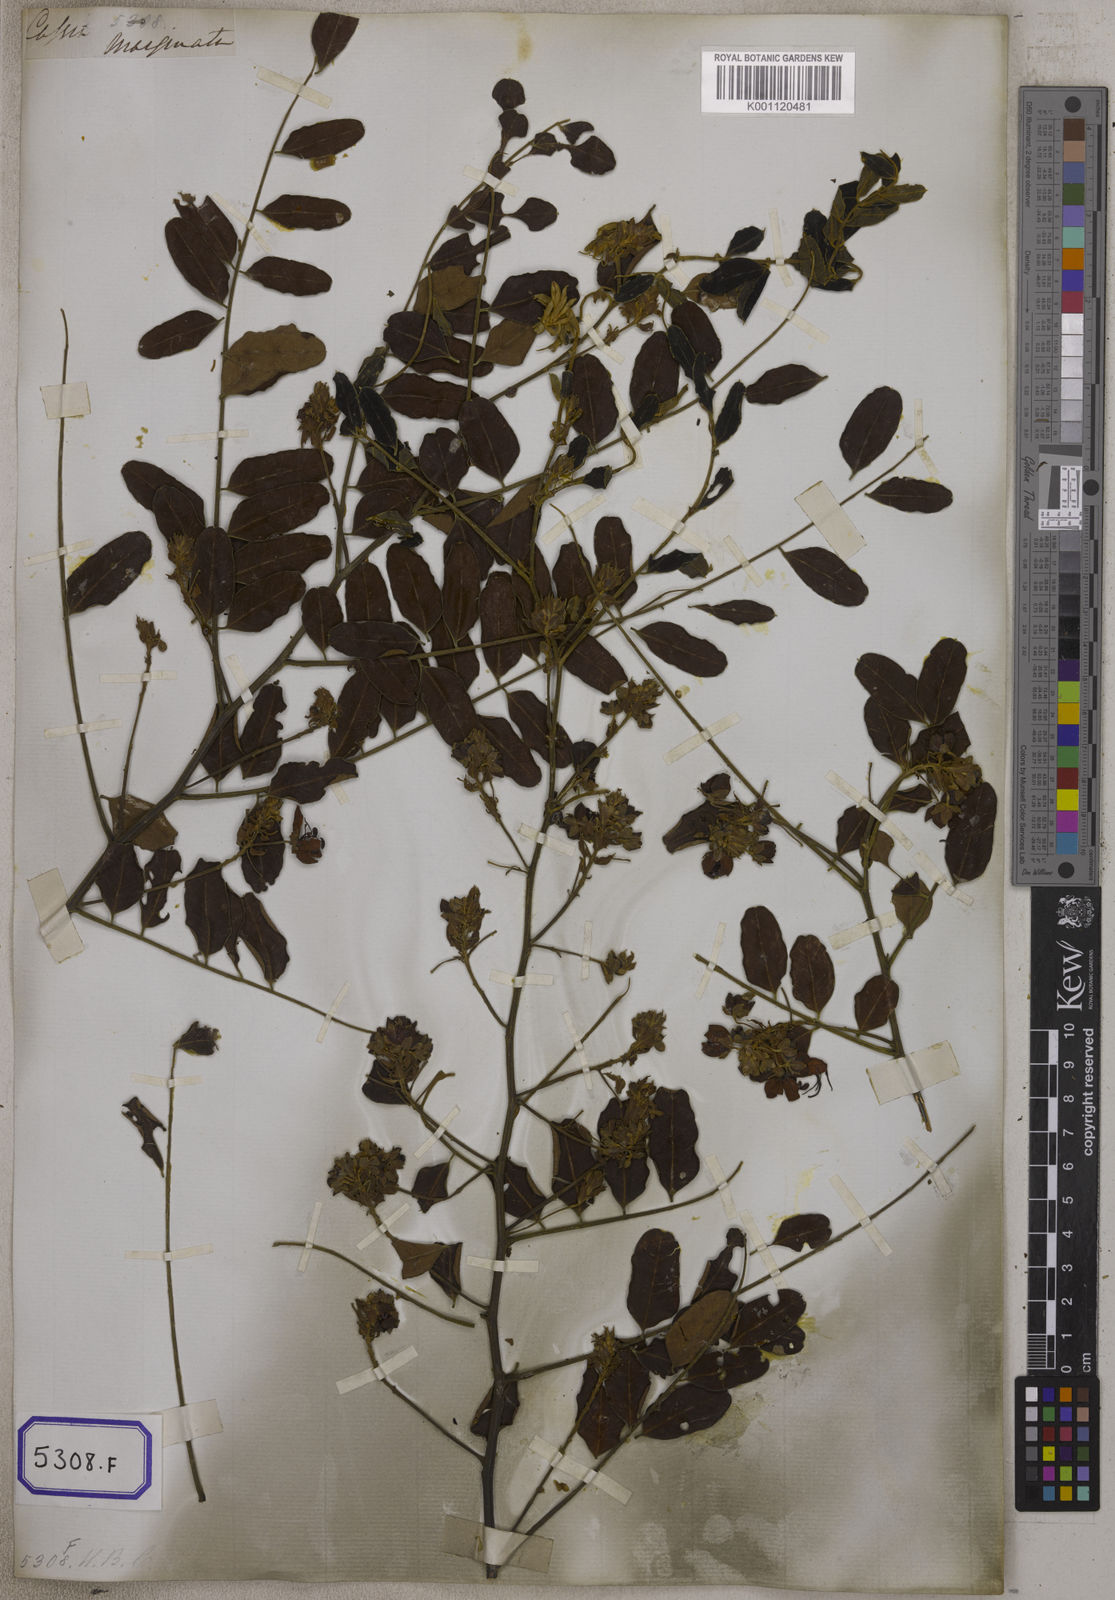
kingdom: Plantae
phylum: Tracheophyta
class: Magnoliopsida
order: Fabales
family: Fabaceae
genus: Cassia
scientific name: Cassia roxburghii
